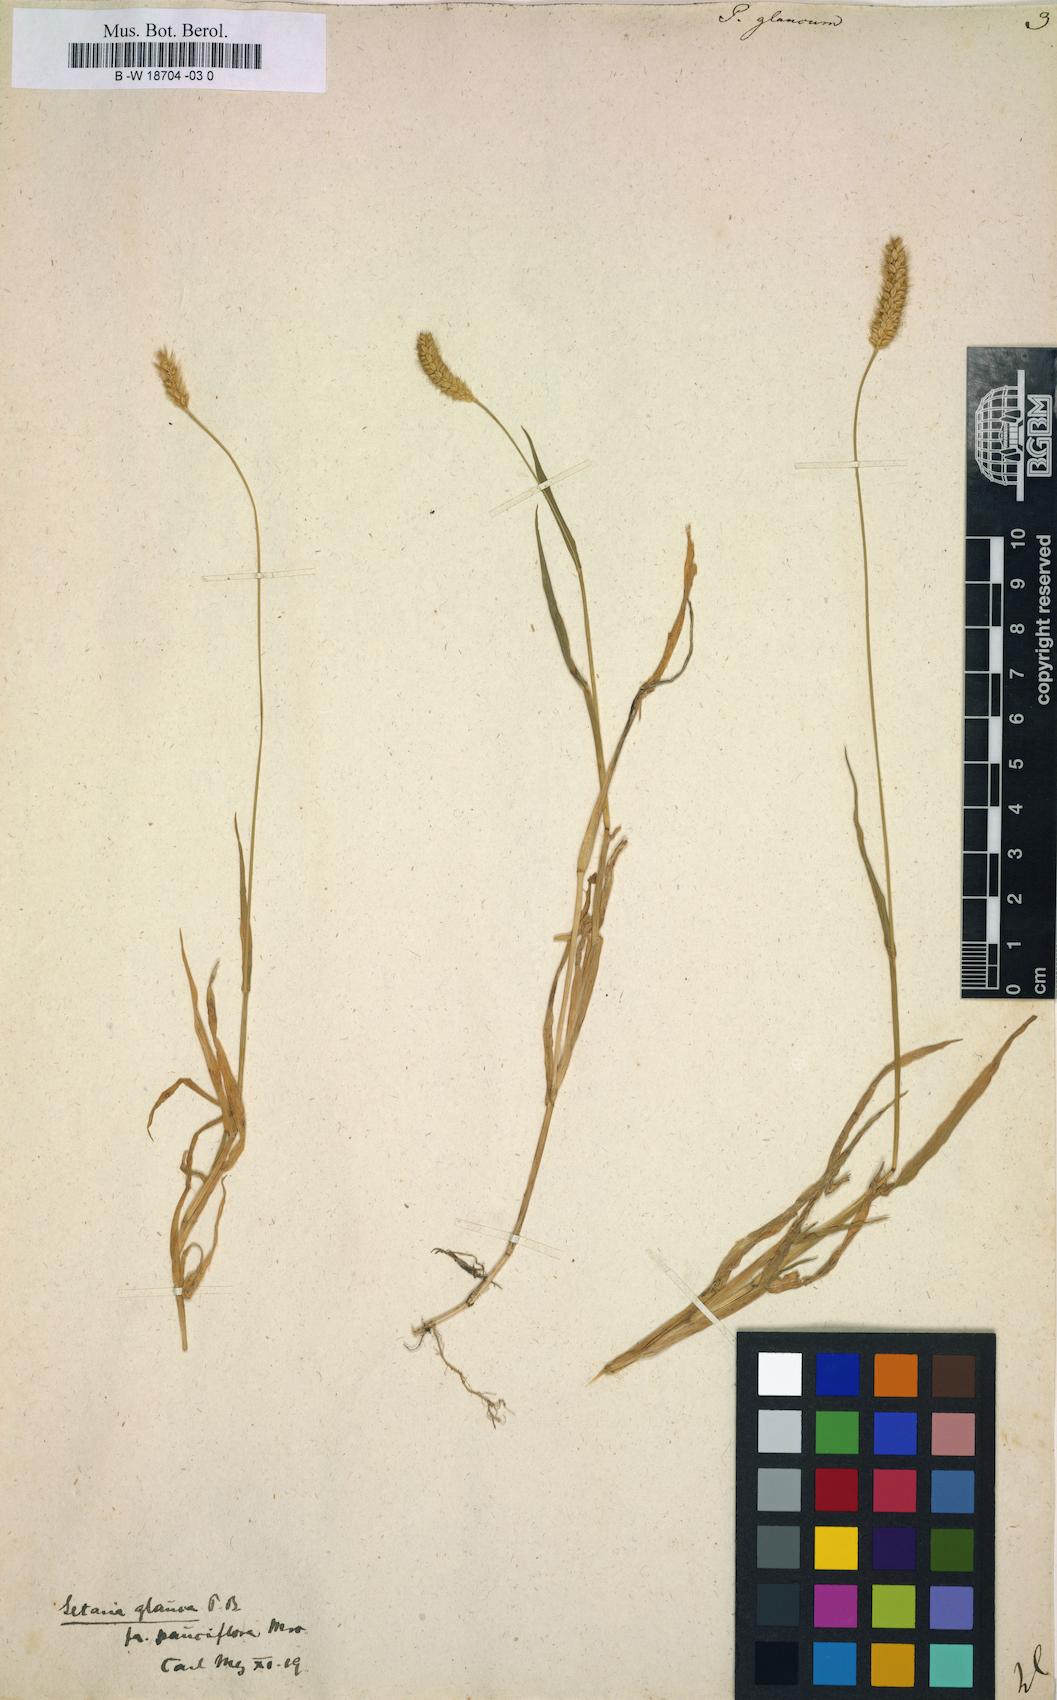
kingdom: Plantae
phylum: Tracheophyta
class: Liliopsida
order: Poales
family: Poaceae
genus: Panicum
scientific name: Panicum glaucum
